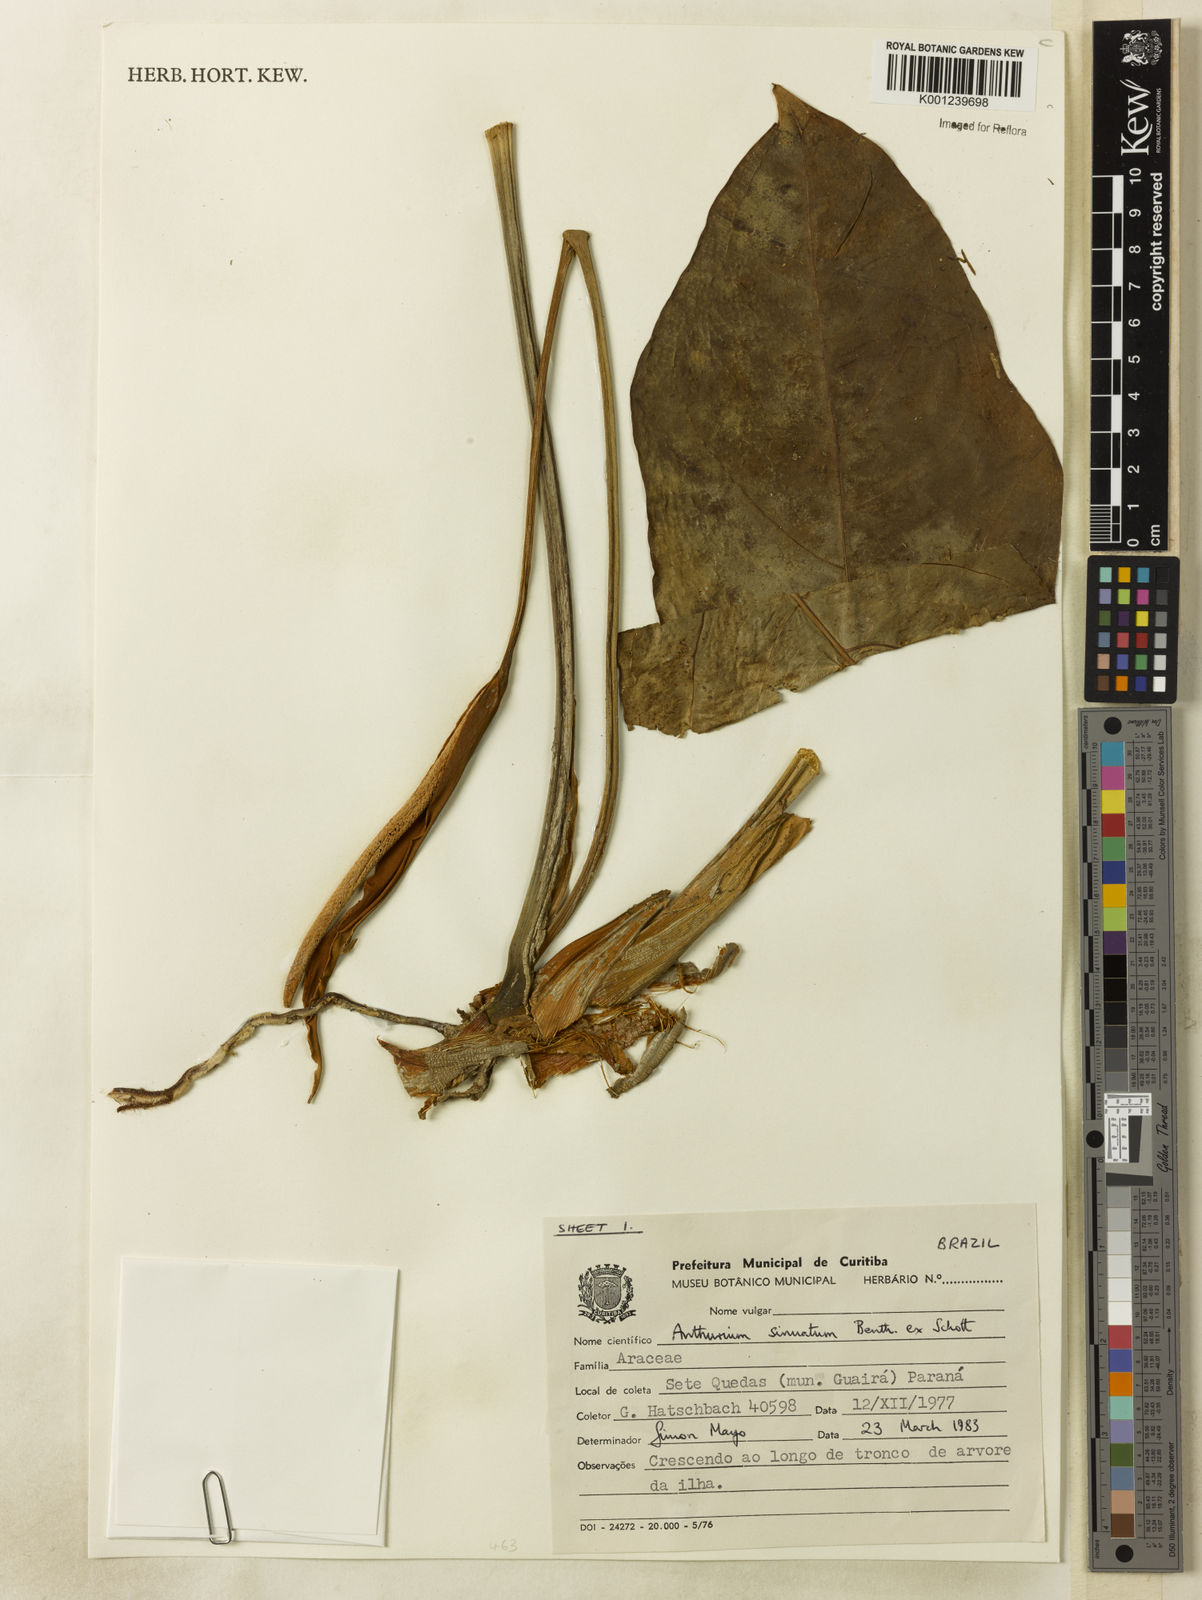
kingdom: Plantae
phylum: Tracheophyta
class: Liliopsida
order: Alismatales
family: Araceae
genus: Anthurium
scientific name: Anthurium sinuatum
